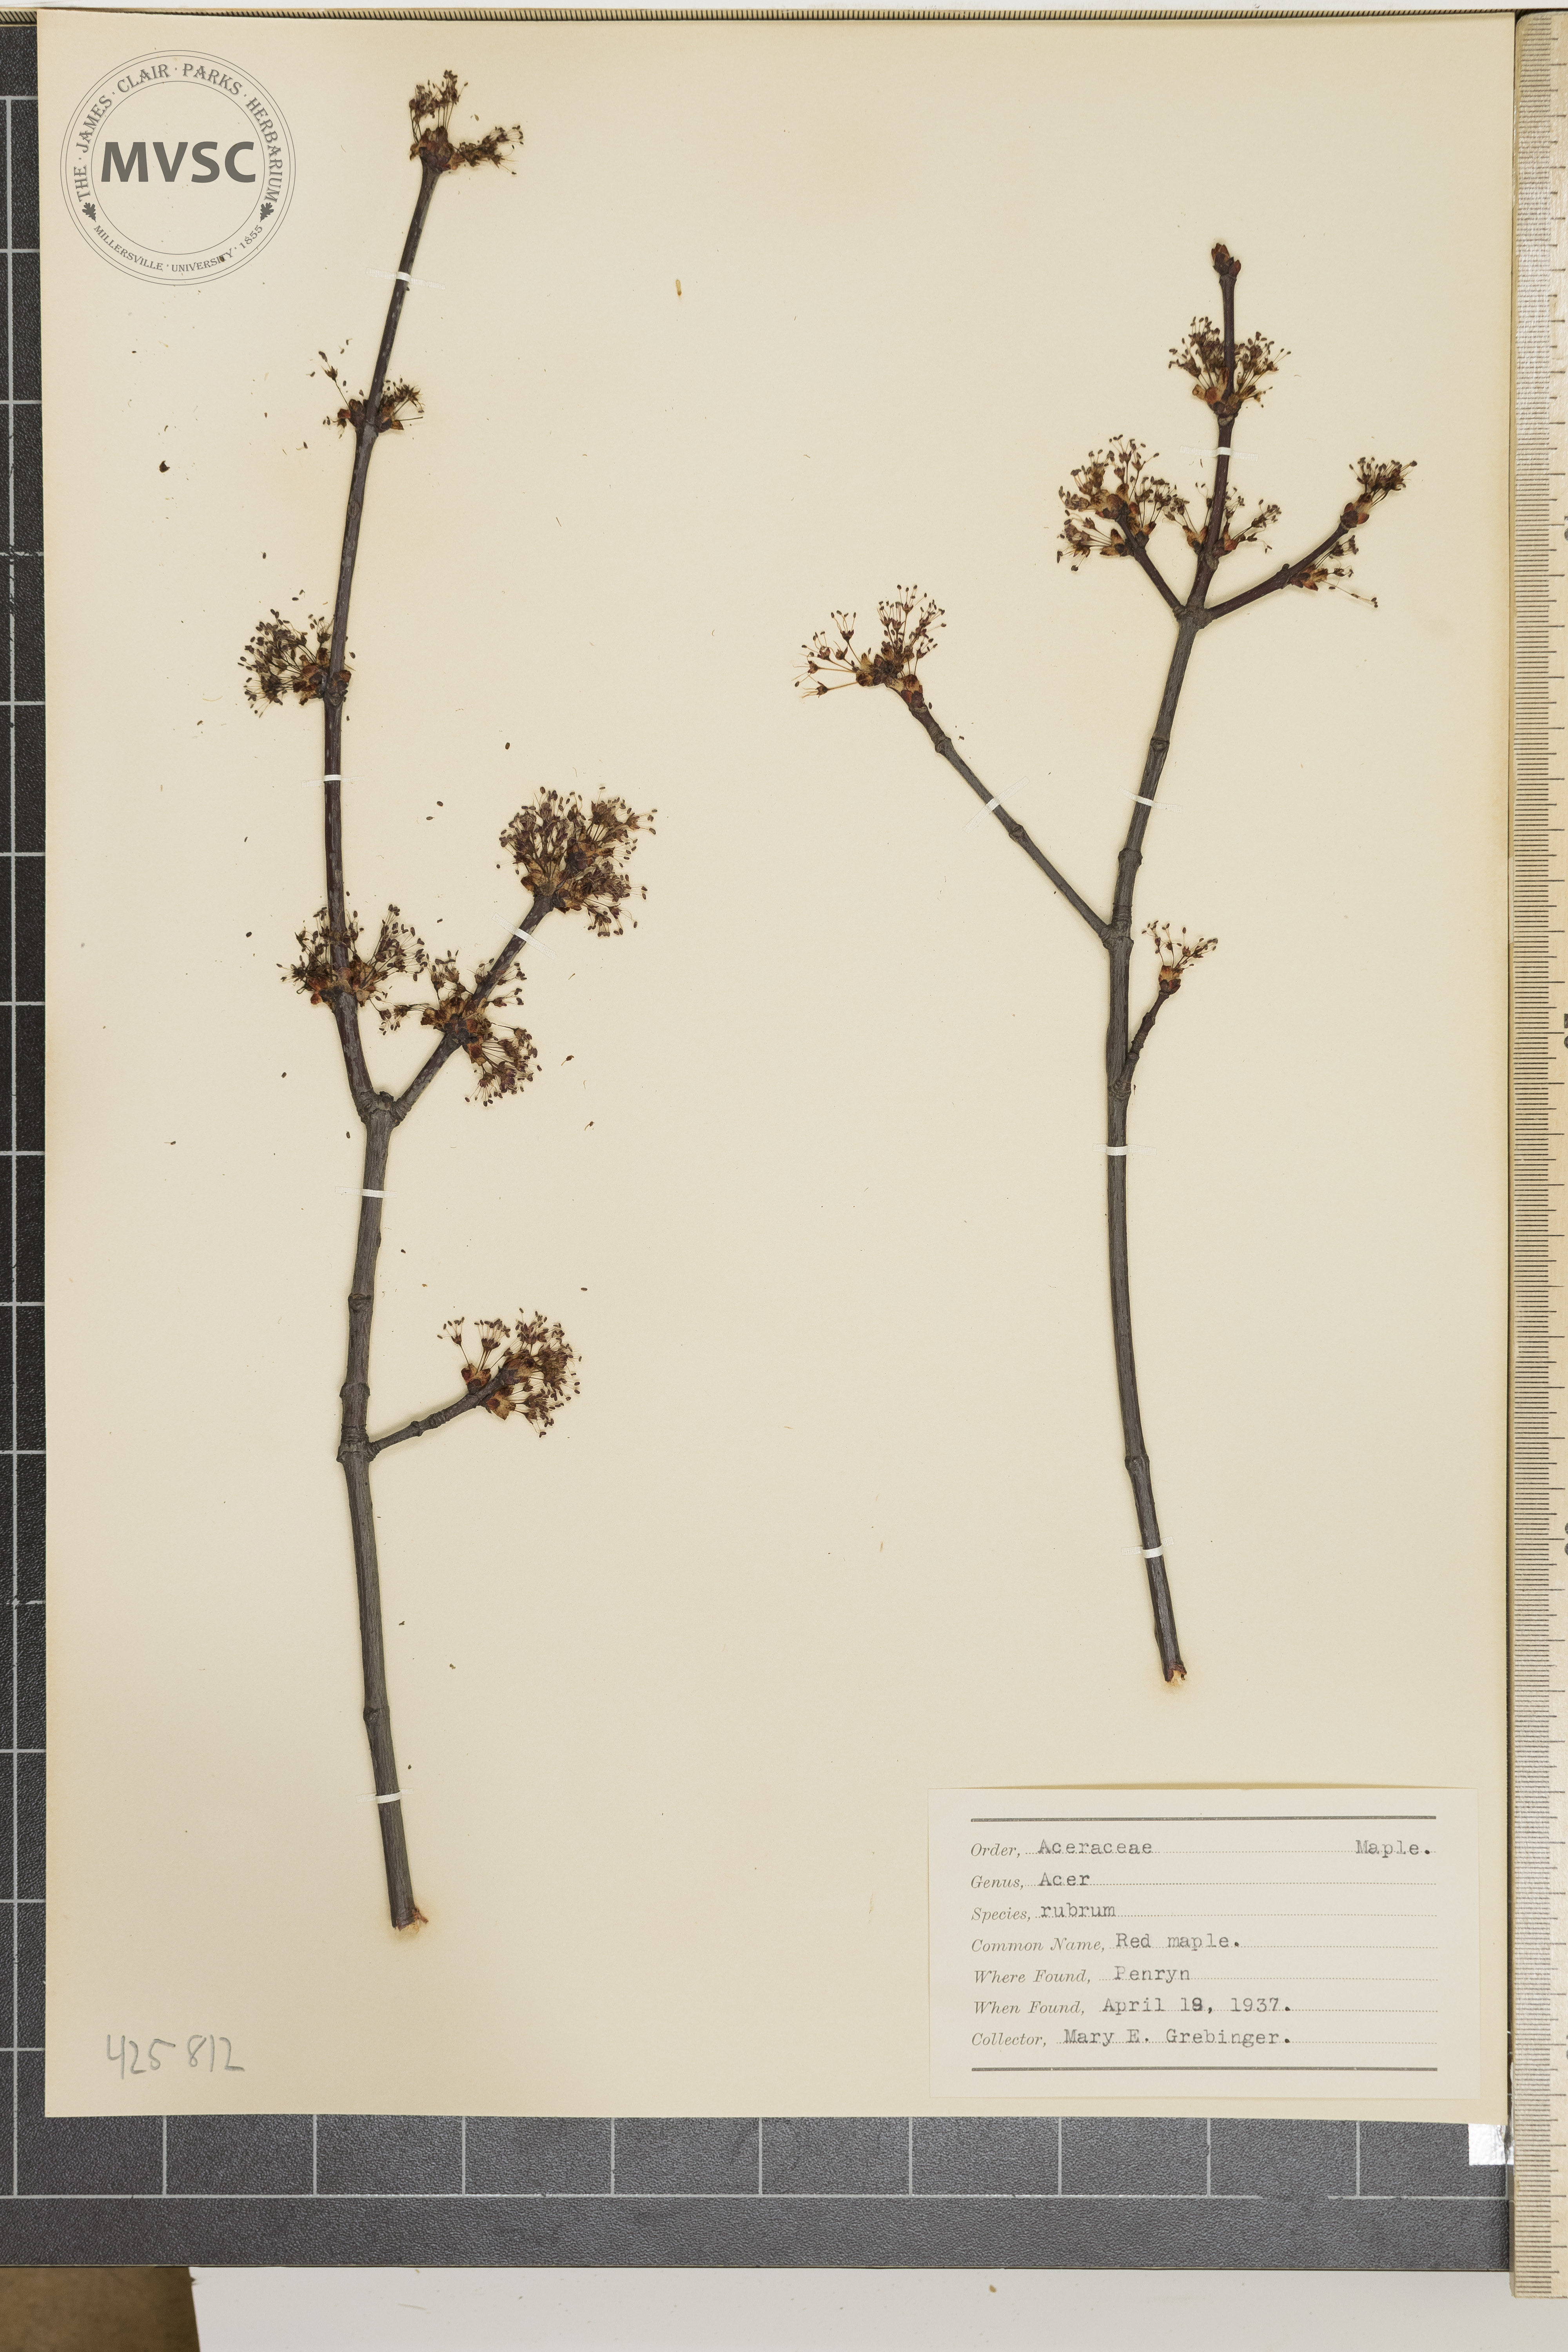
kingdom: Plantae
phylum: Tracheophyta
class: Magnoliopsida
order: Sapindales
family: Sapindaceae
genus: Acer
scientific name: Acer rubrum
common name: Red maple
